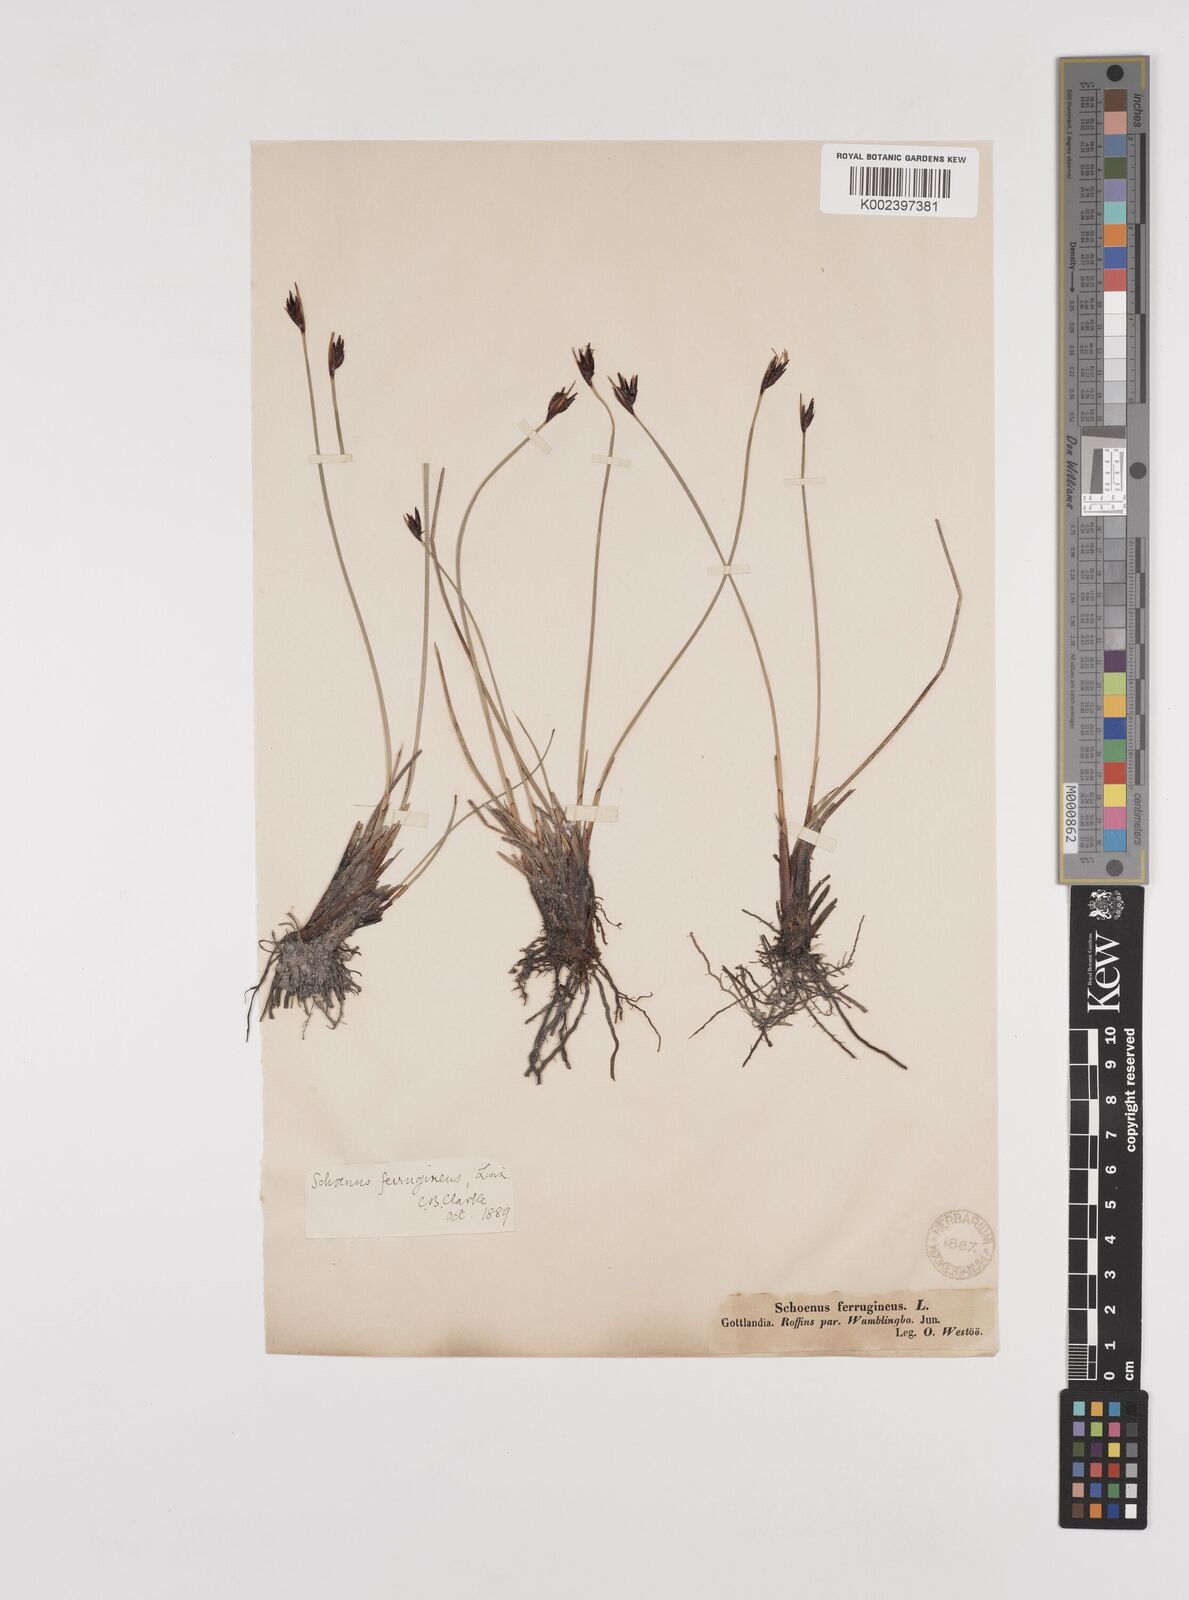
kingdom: Plantae
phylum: Tracheophyta
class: Liliopsida
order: Poales
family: Cyperaceae
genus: Schoenus
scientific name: Schoenus ferrugineus
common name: Brown bog-rush
